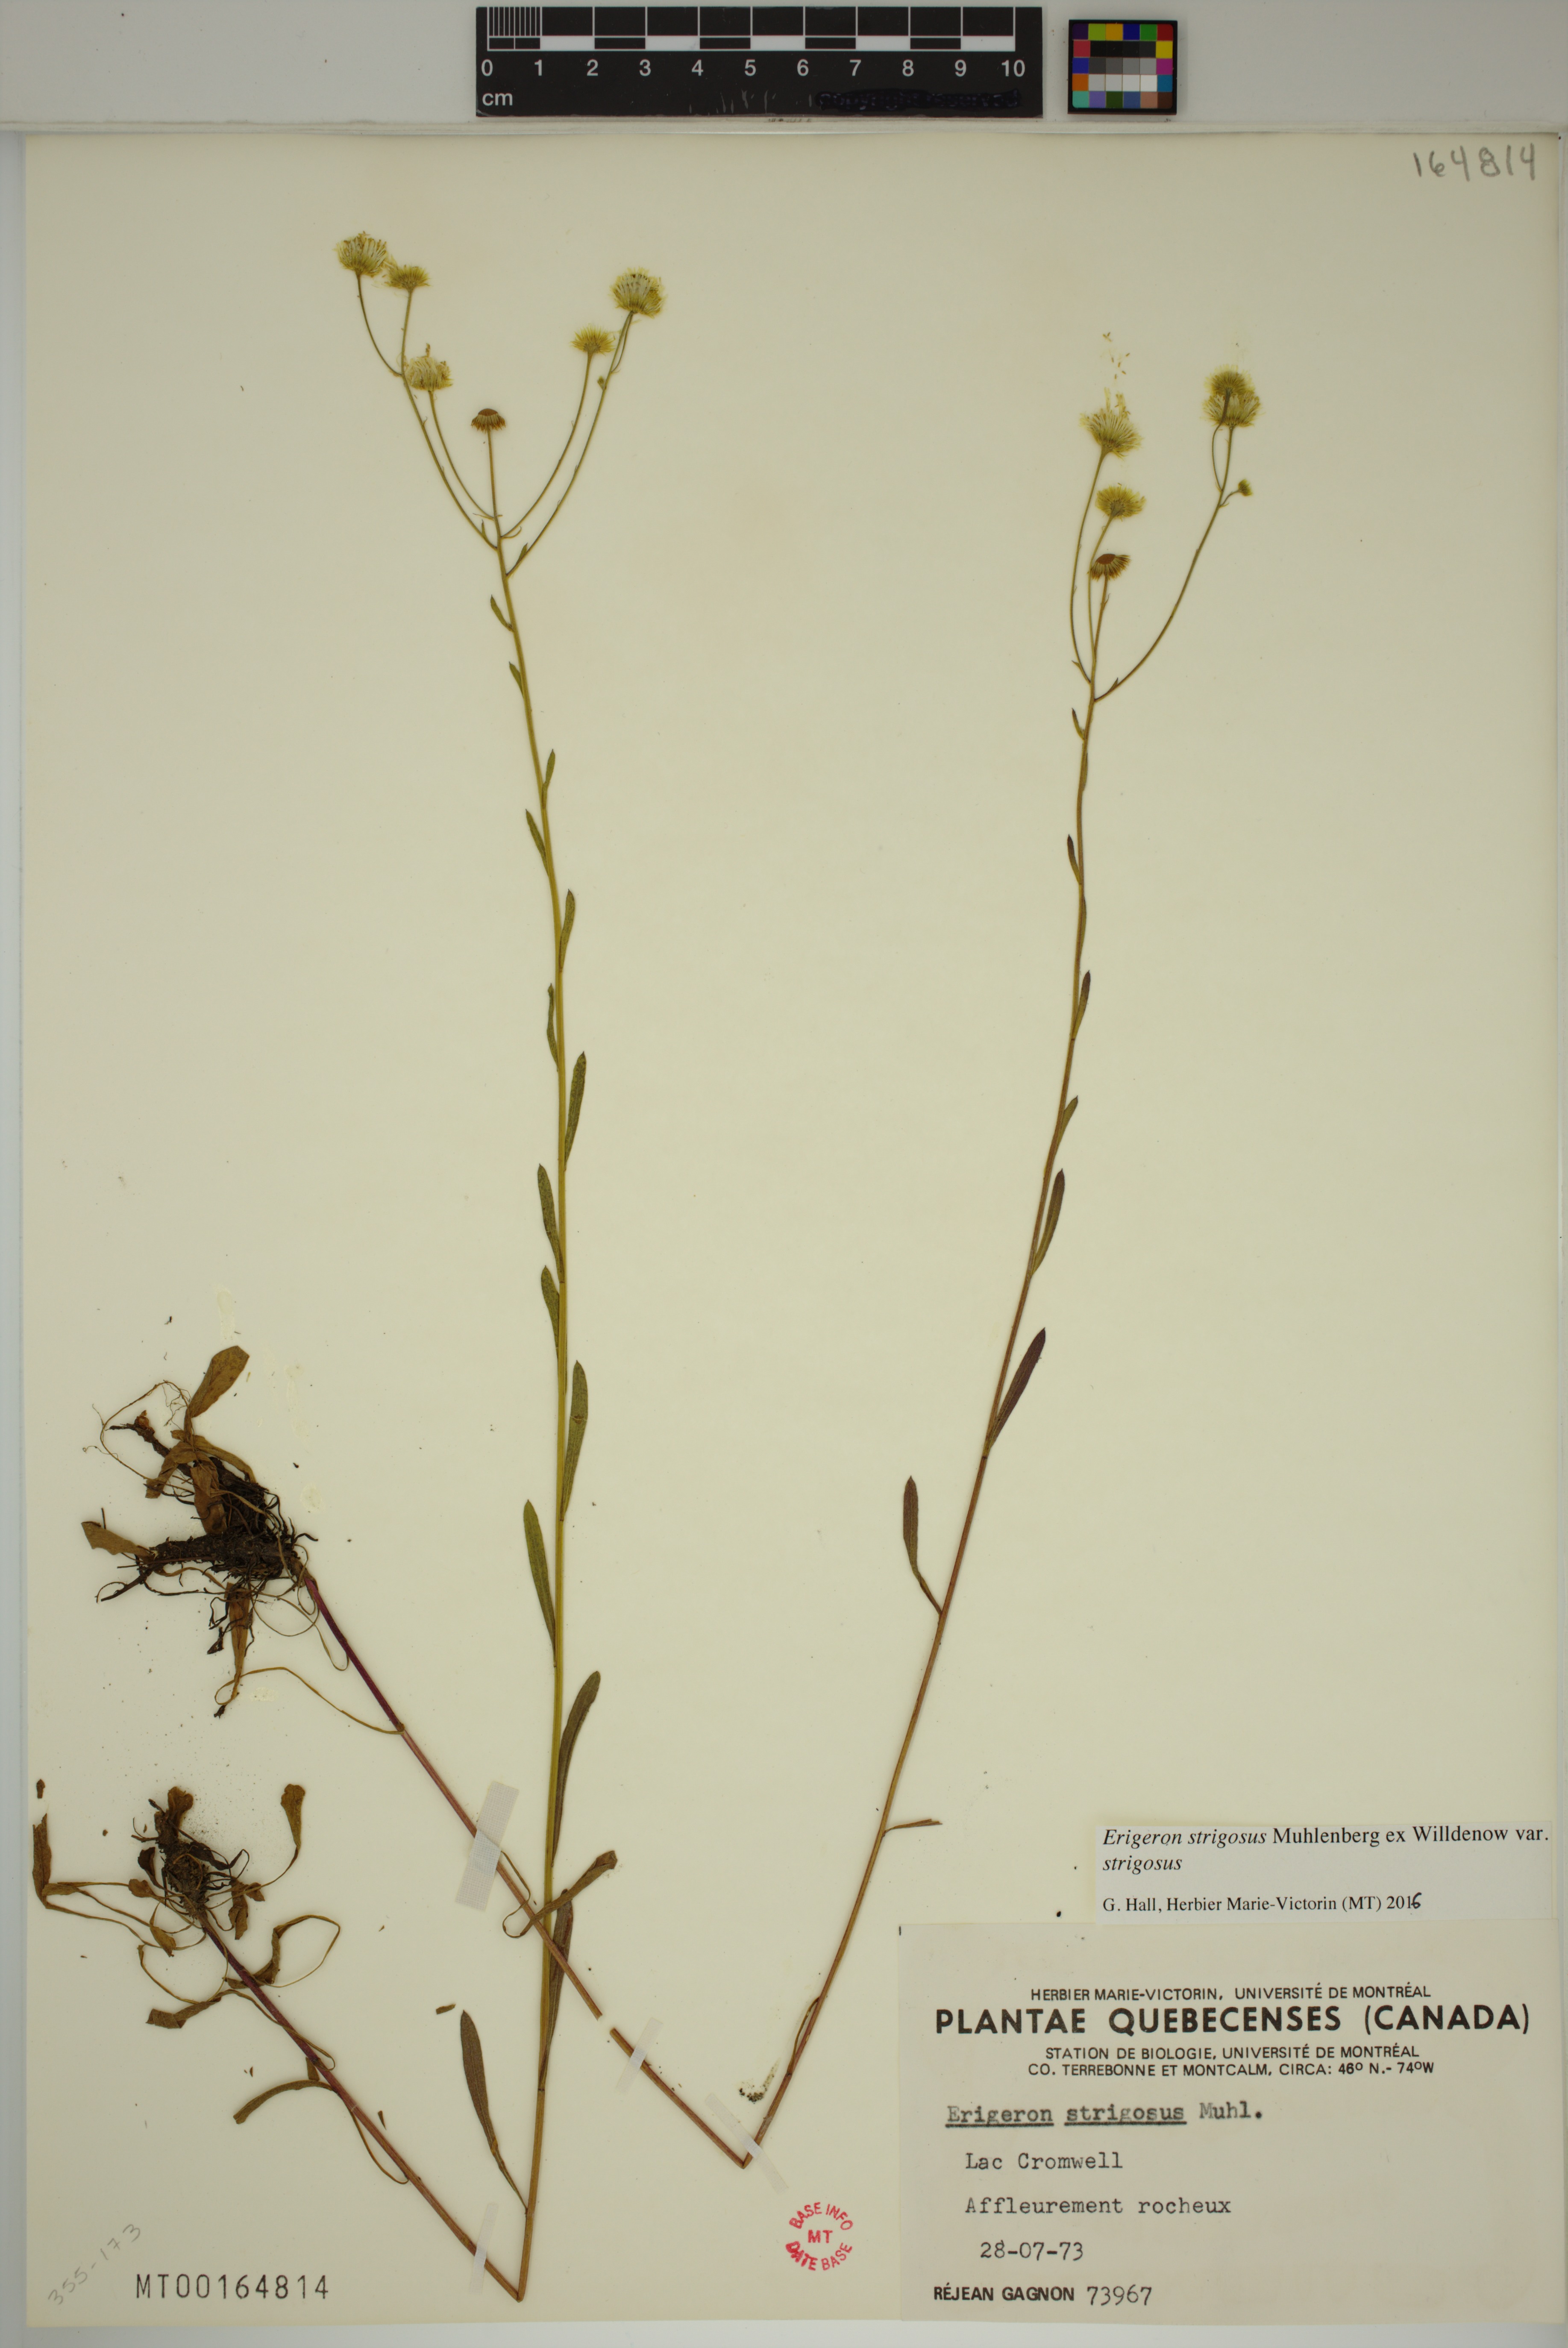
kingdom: Plantae
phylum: Tracheophyta
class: Magnoliopsida
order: Asterales
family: Asteraceae
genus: Erigeron
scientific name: Erigeron strigosus
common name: Common eastern fleabane
